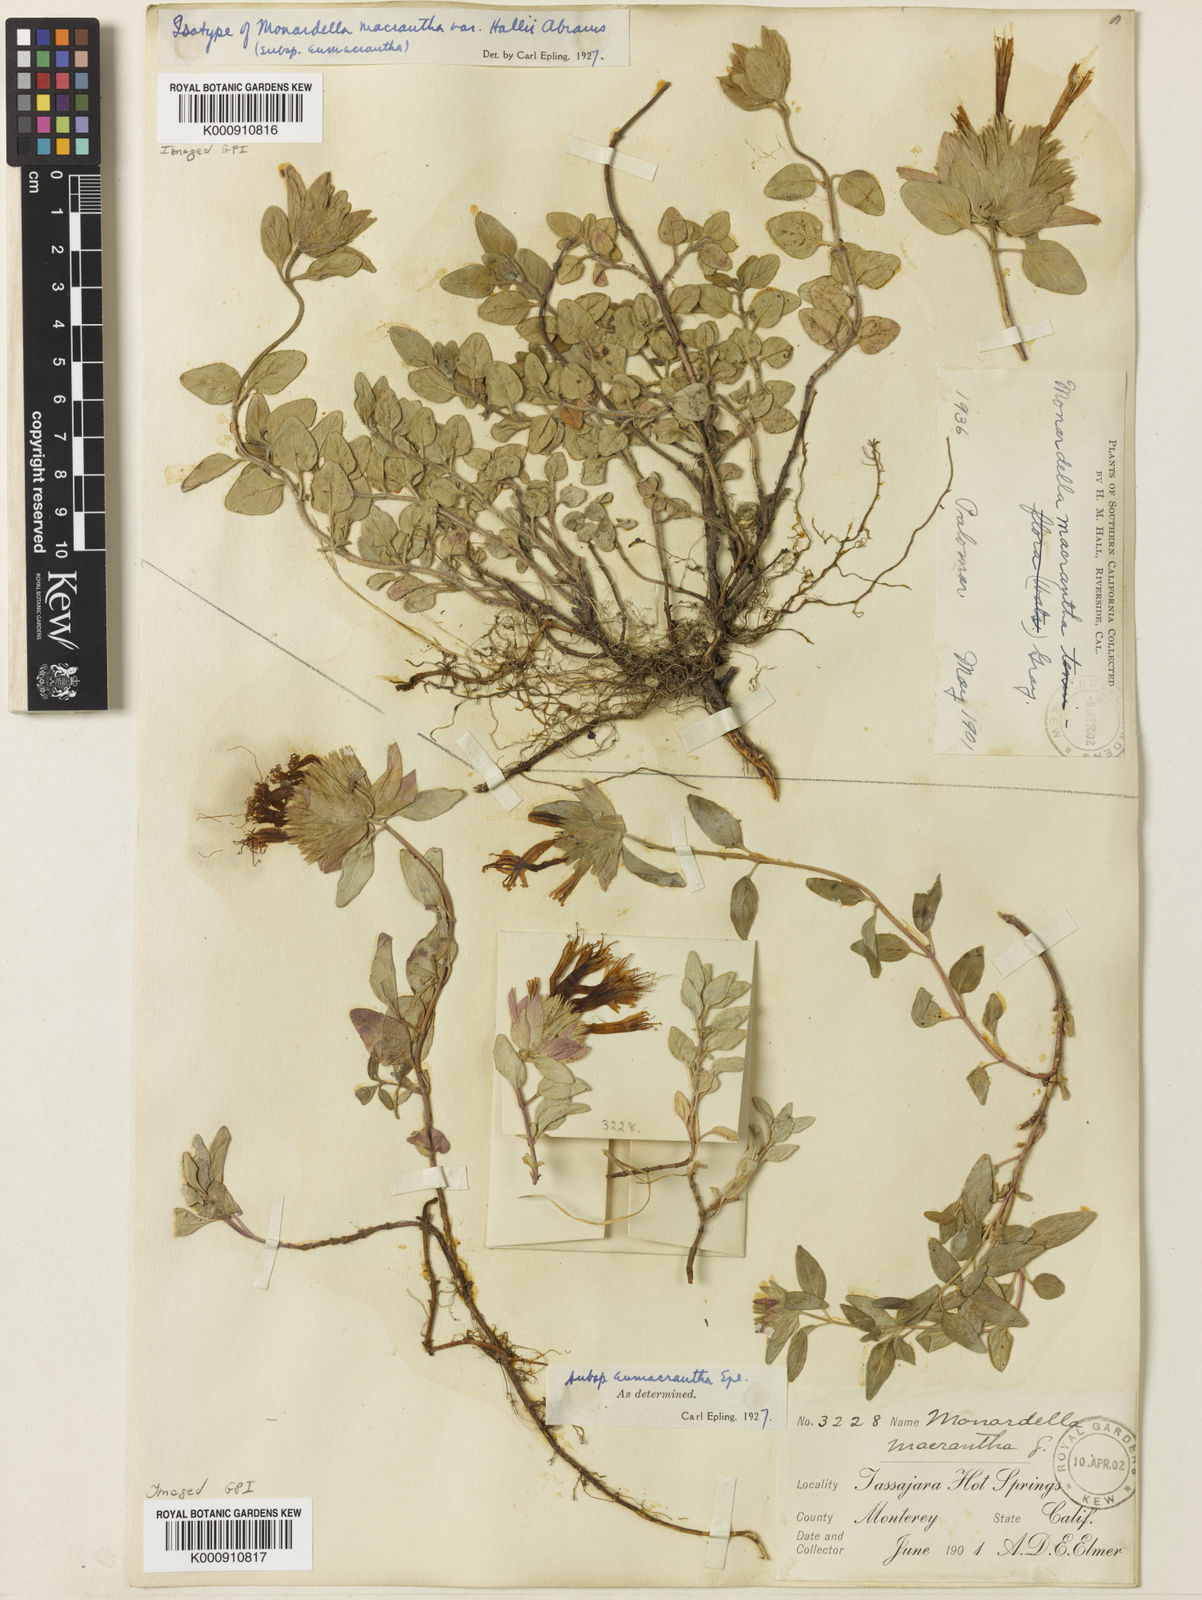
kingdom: Plantae
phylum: Tracheophyta
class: Magnoliopsida
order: Lamiales
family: Lamiaceae
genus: Monardella
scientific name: Monardella macrantha
